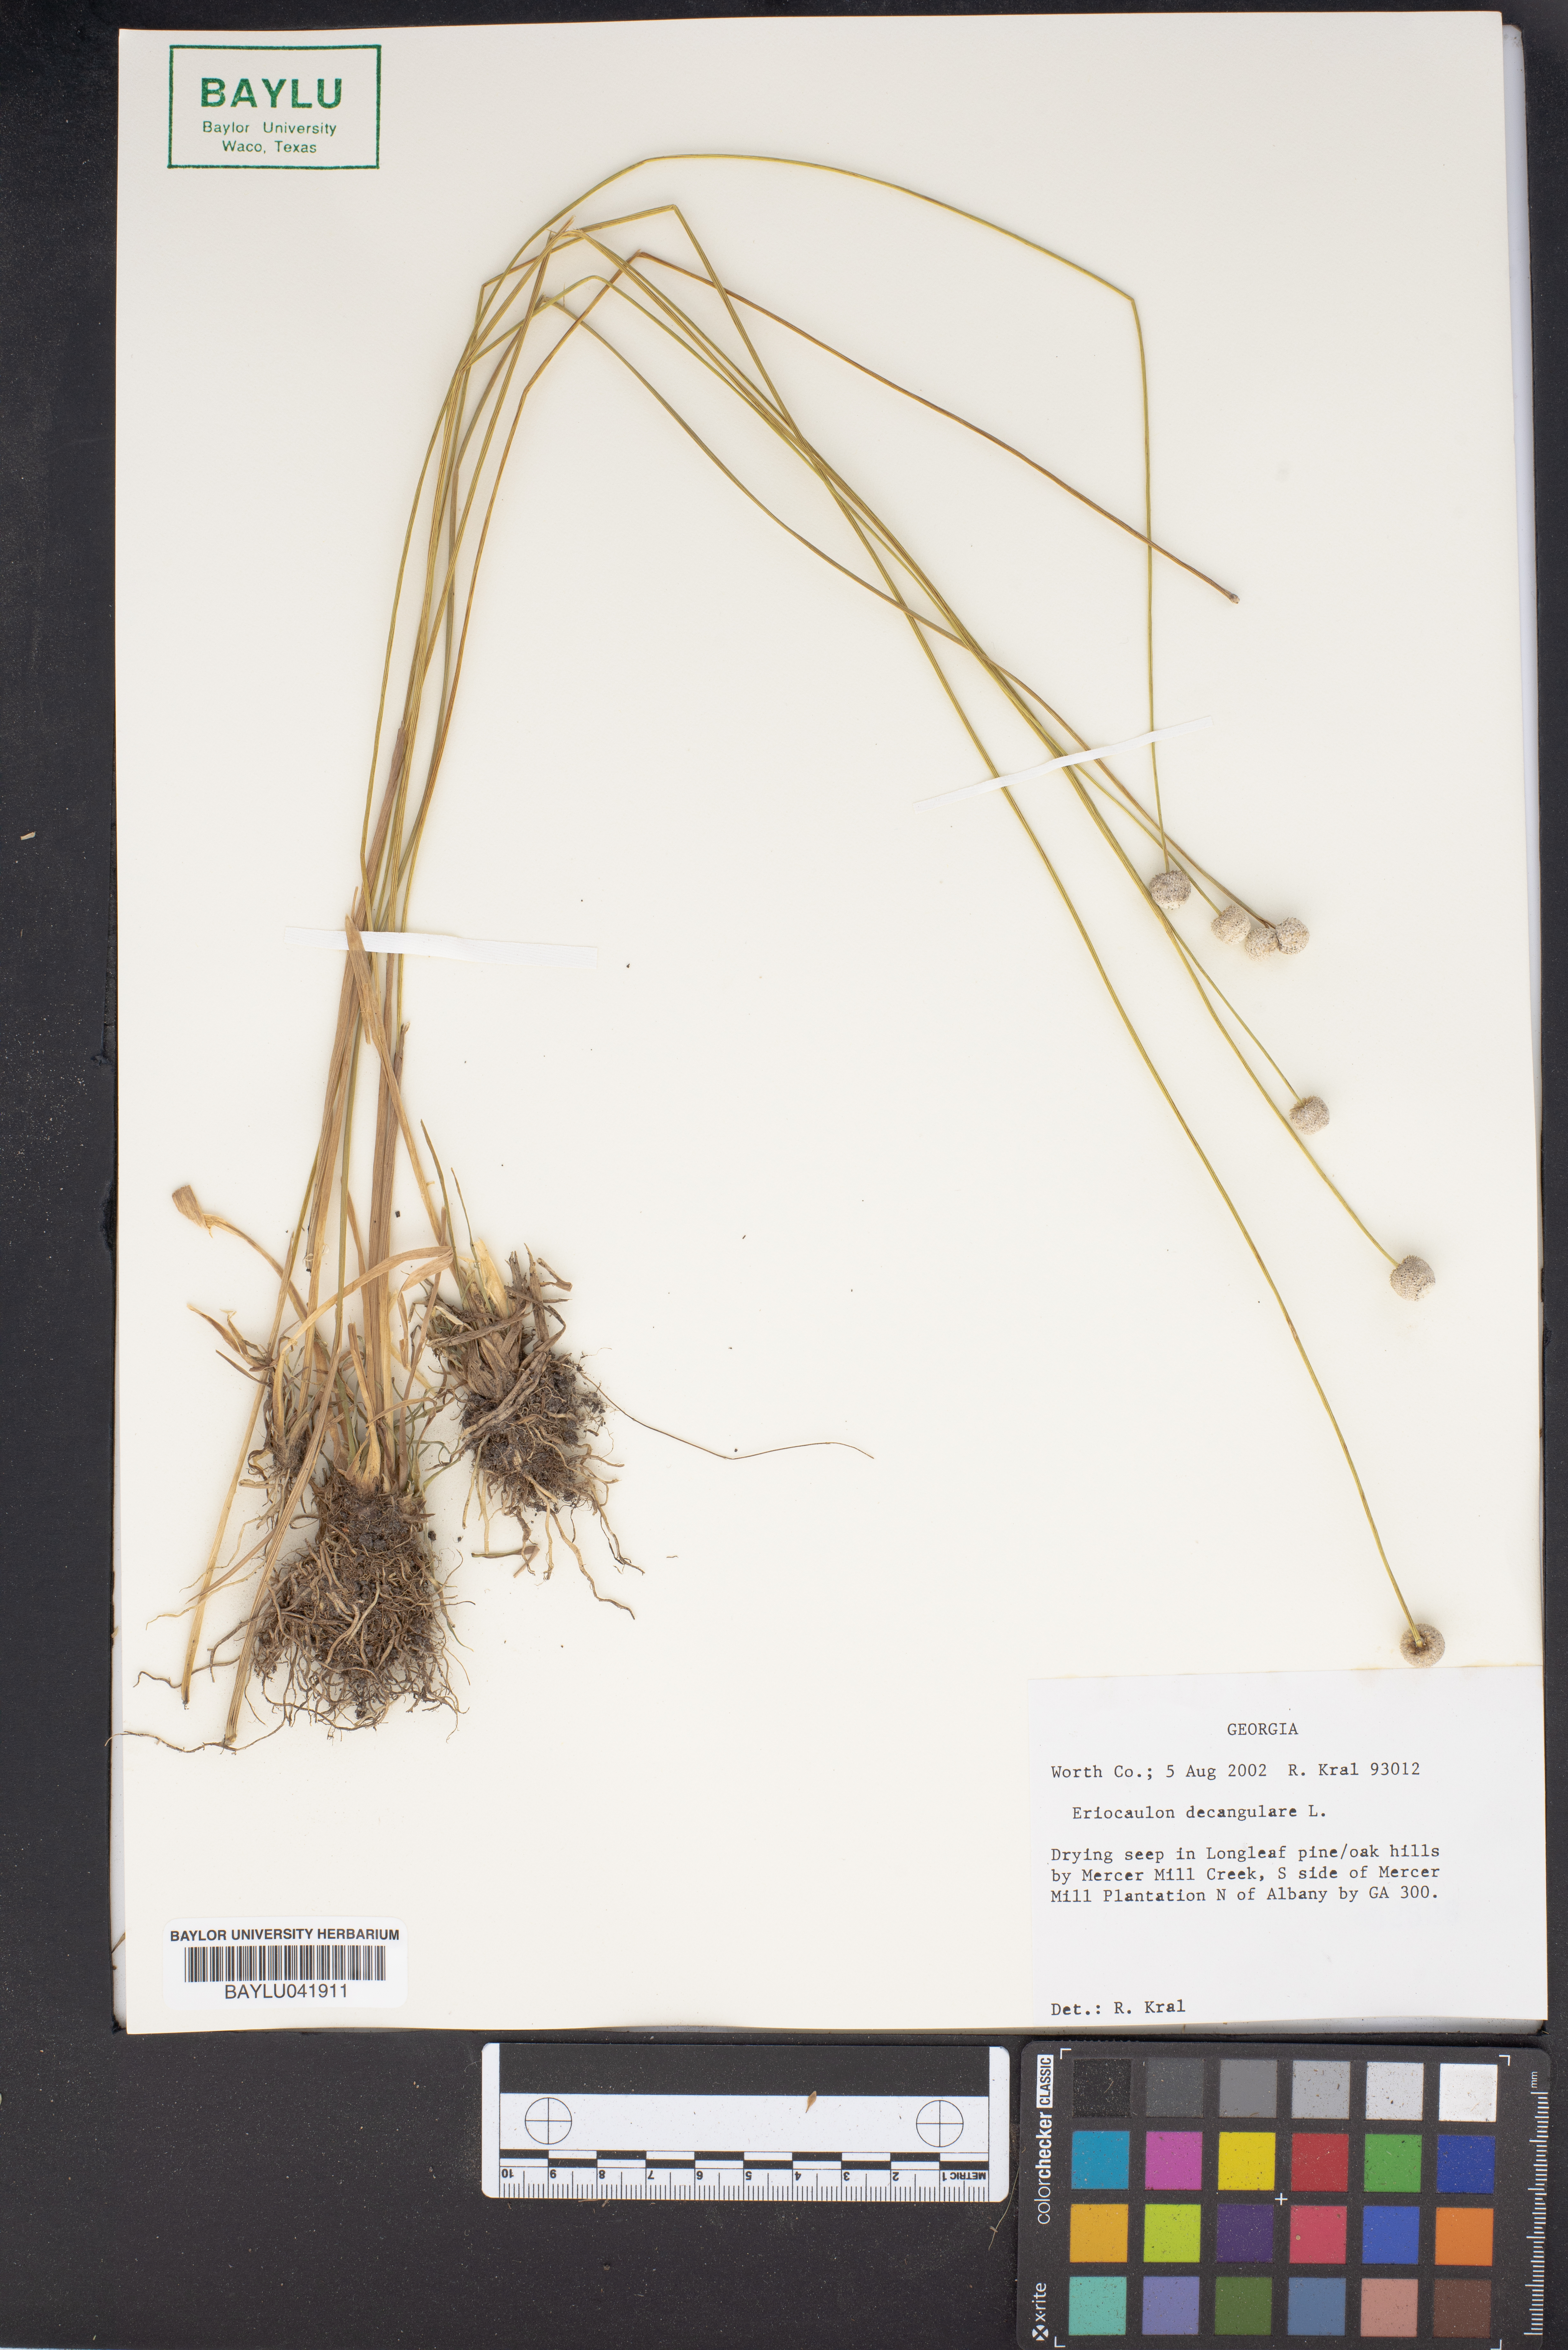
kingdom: Plantae
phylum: Tracheophyta
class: Liliopsida
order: Poales
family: Eriocaulaceae
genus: Eriocaulon
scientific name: Eriocaulon decangulare
